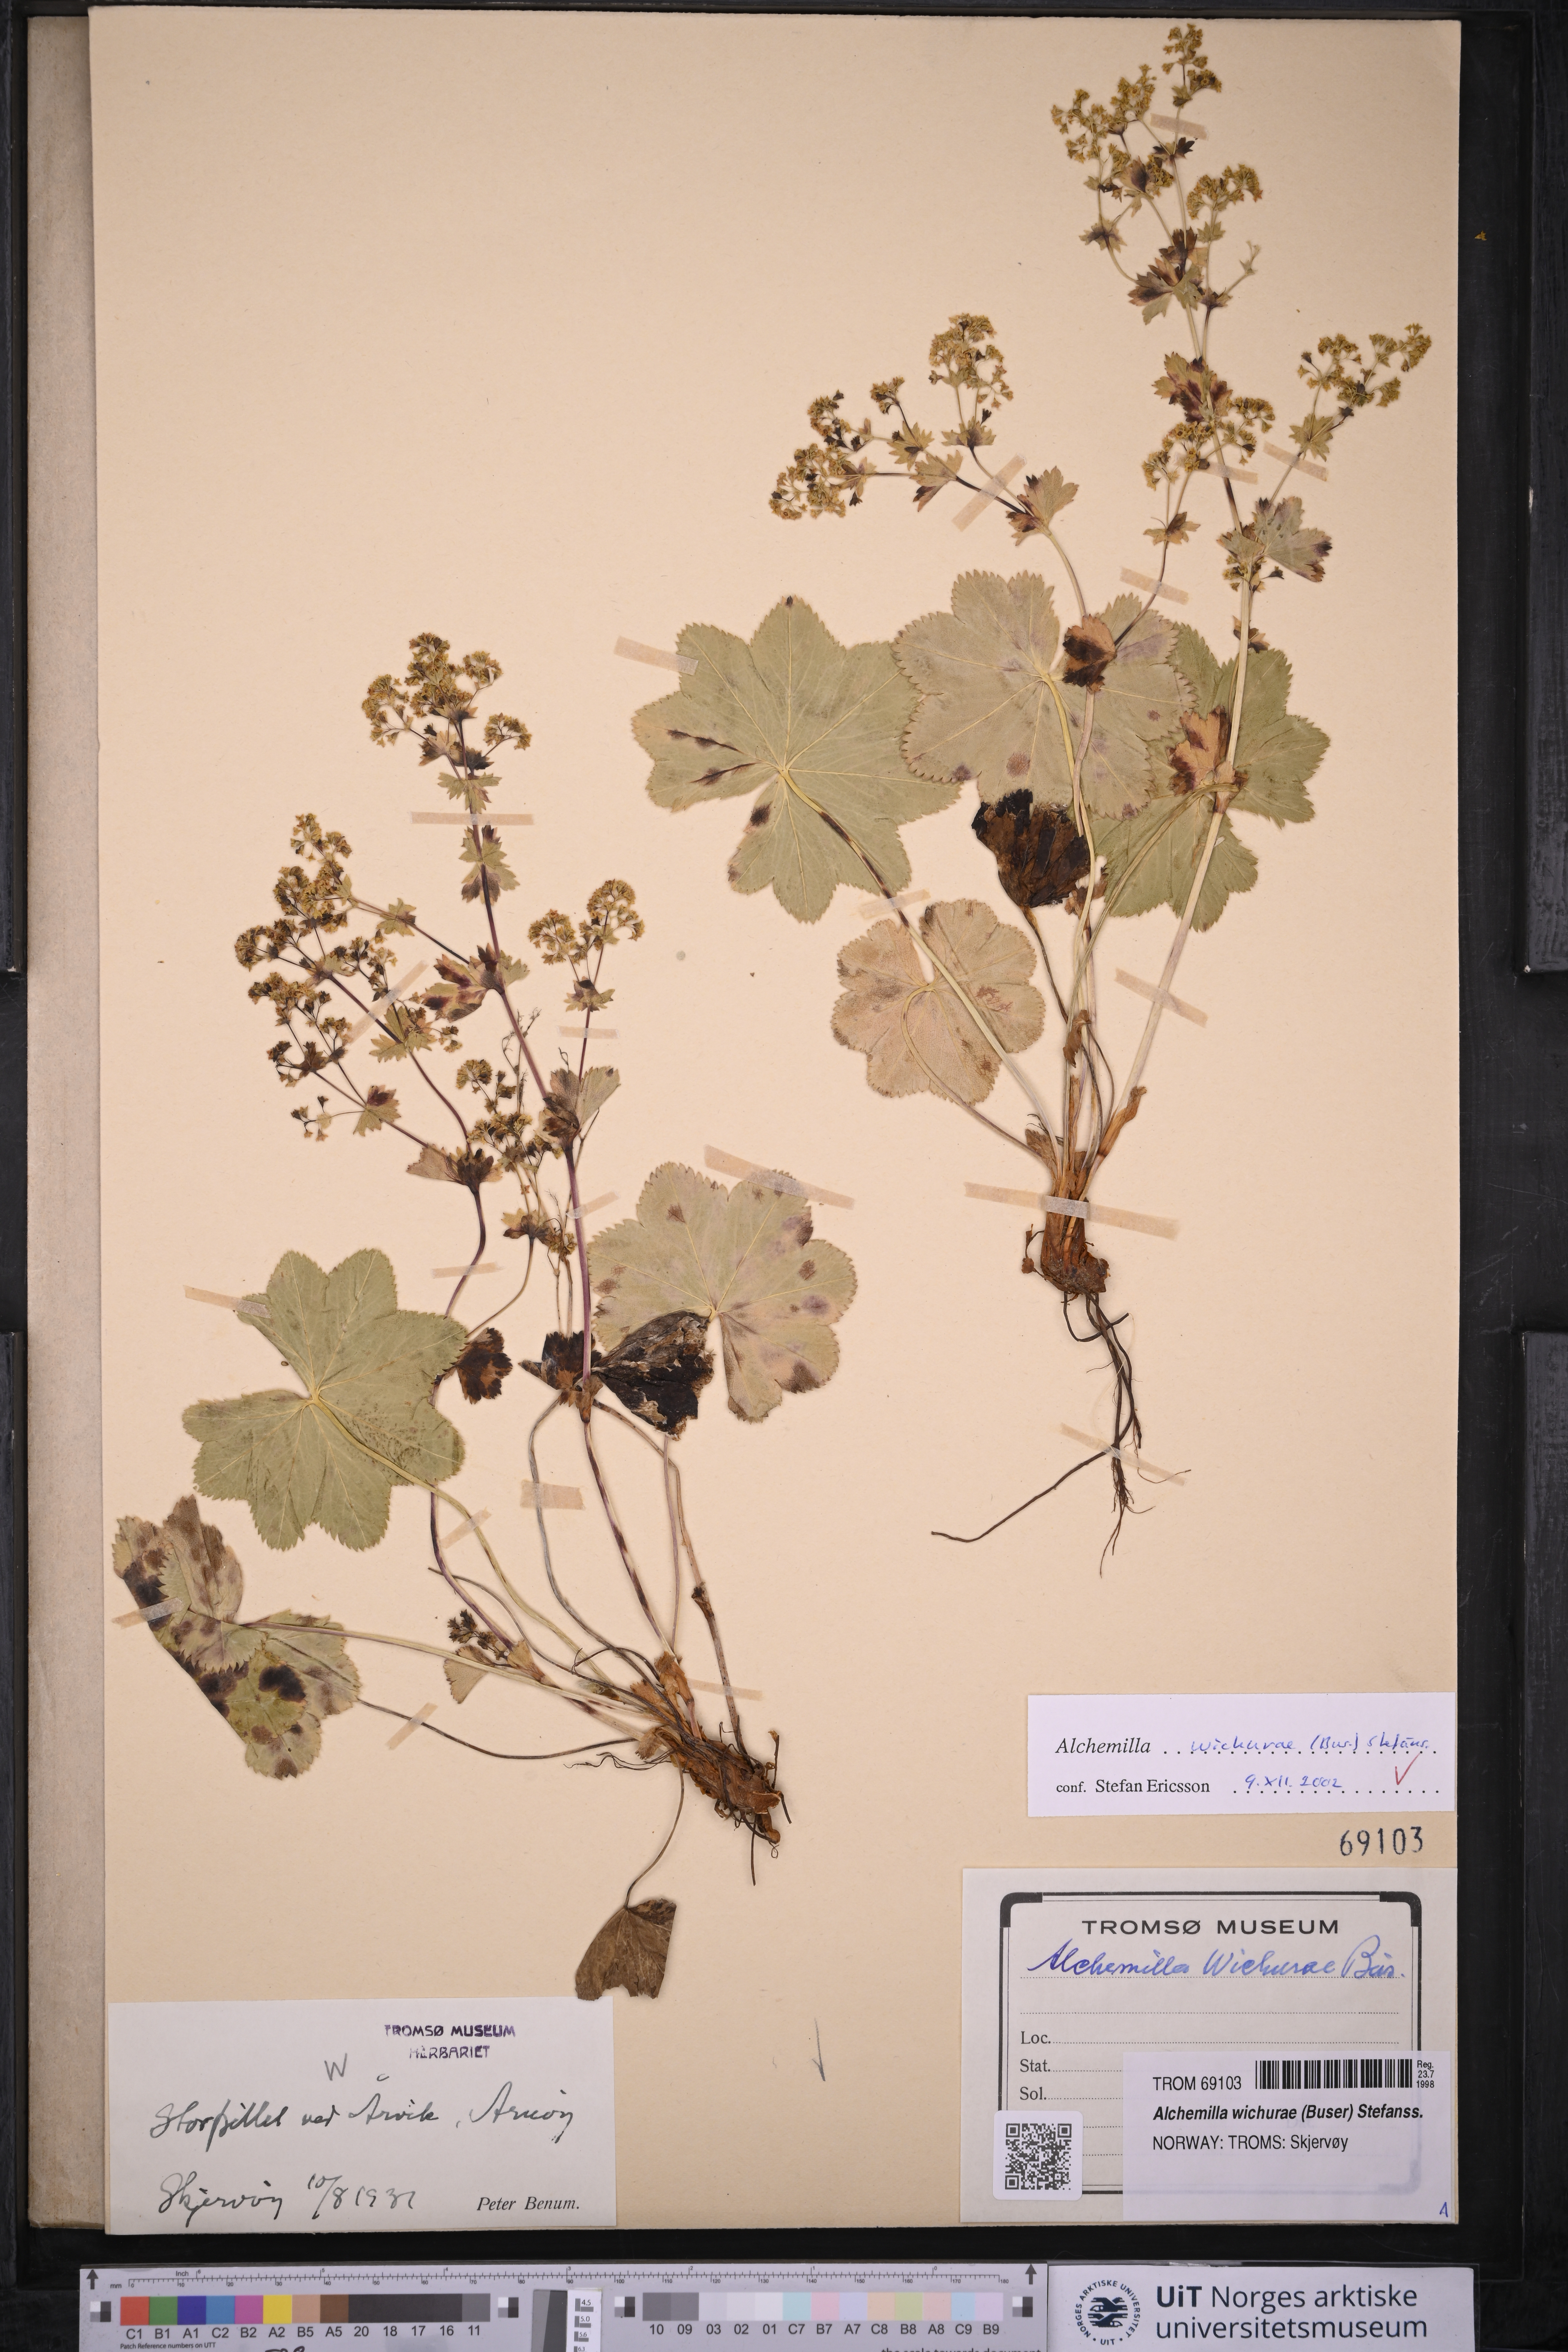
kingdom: Plantae
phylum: Tracheophyta
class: Magnoliopsida
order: Rosales
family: Rosaceae
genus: Alchemilla
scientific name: Alchemilla wichurae
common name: Rock lady's mantle
